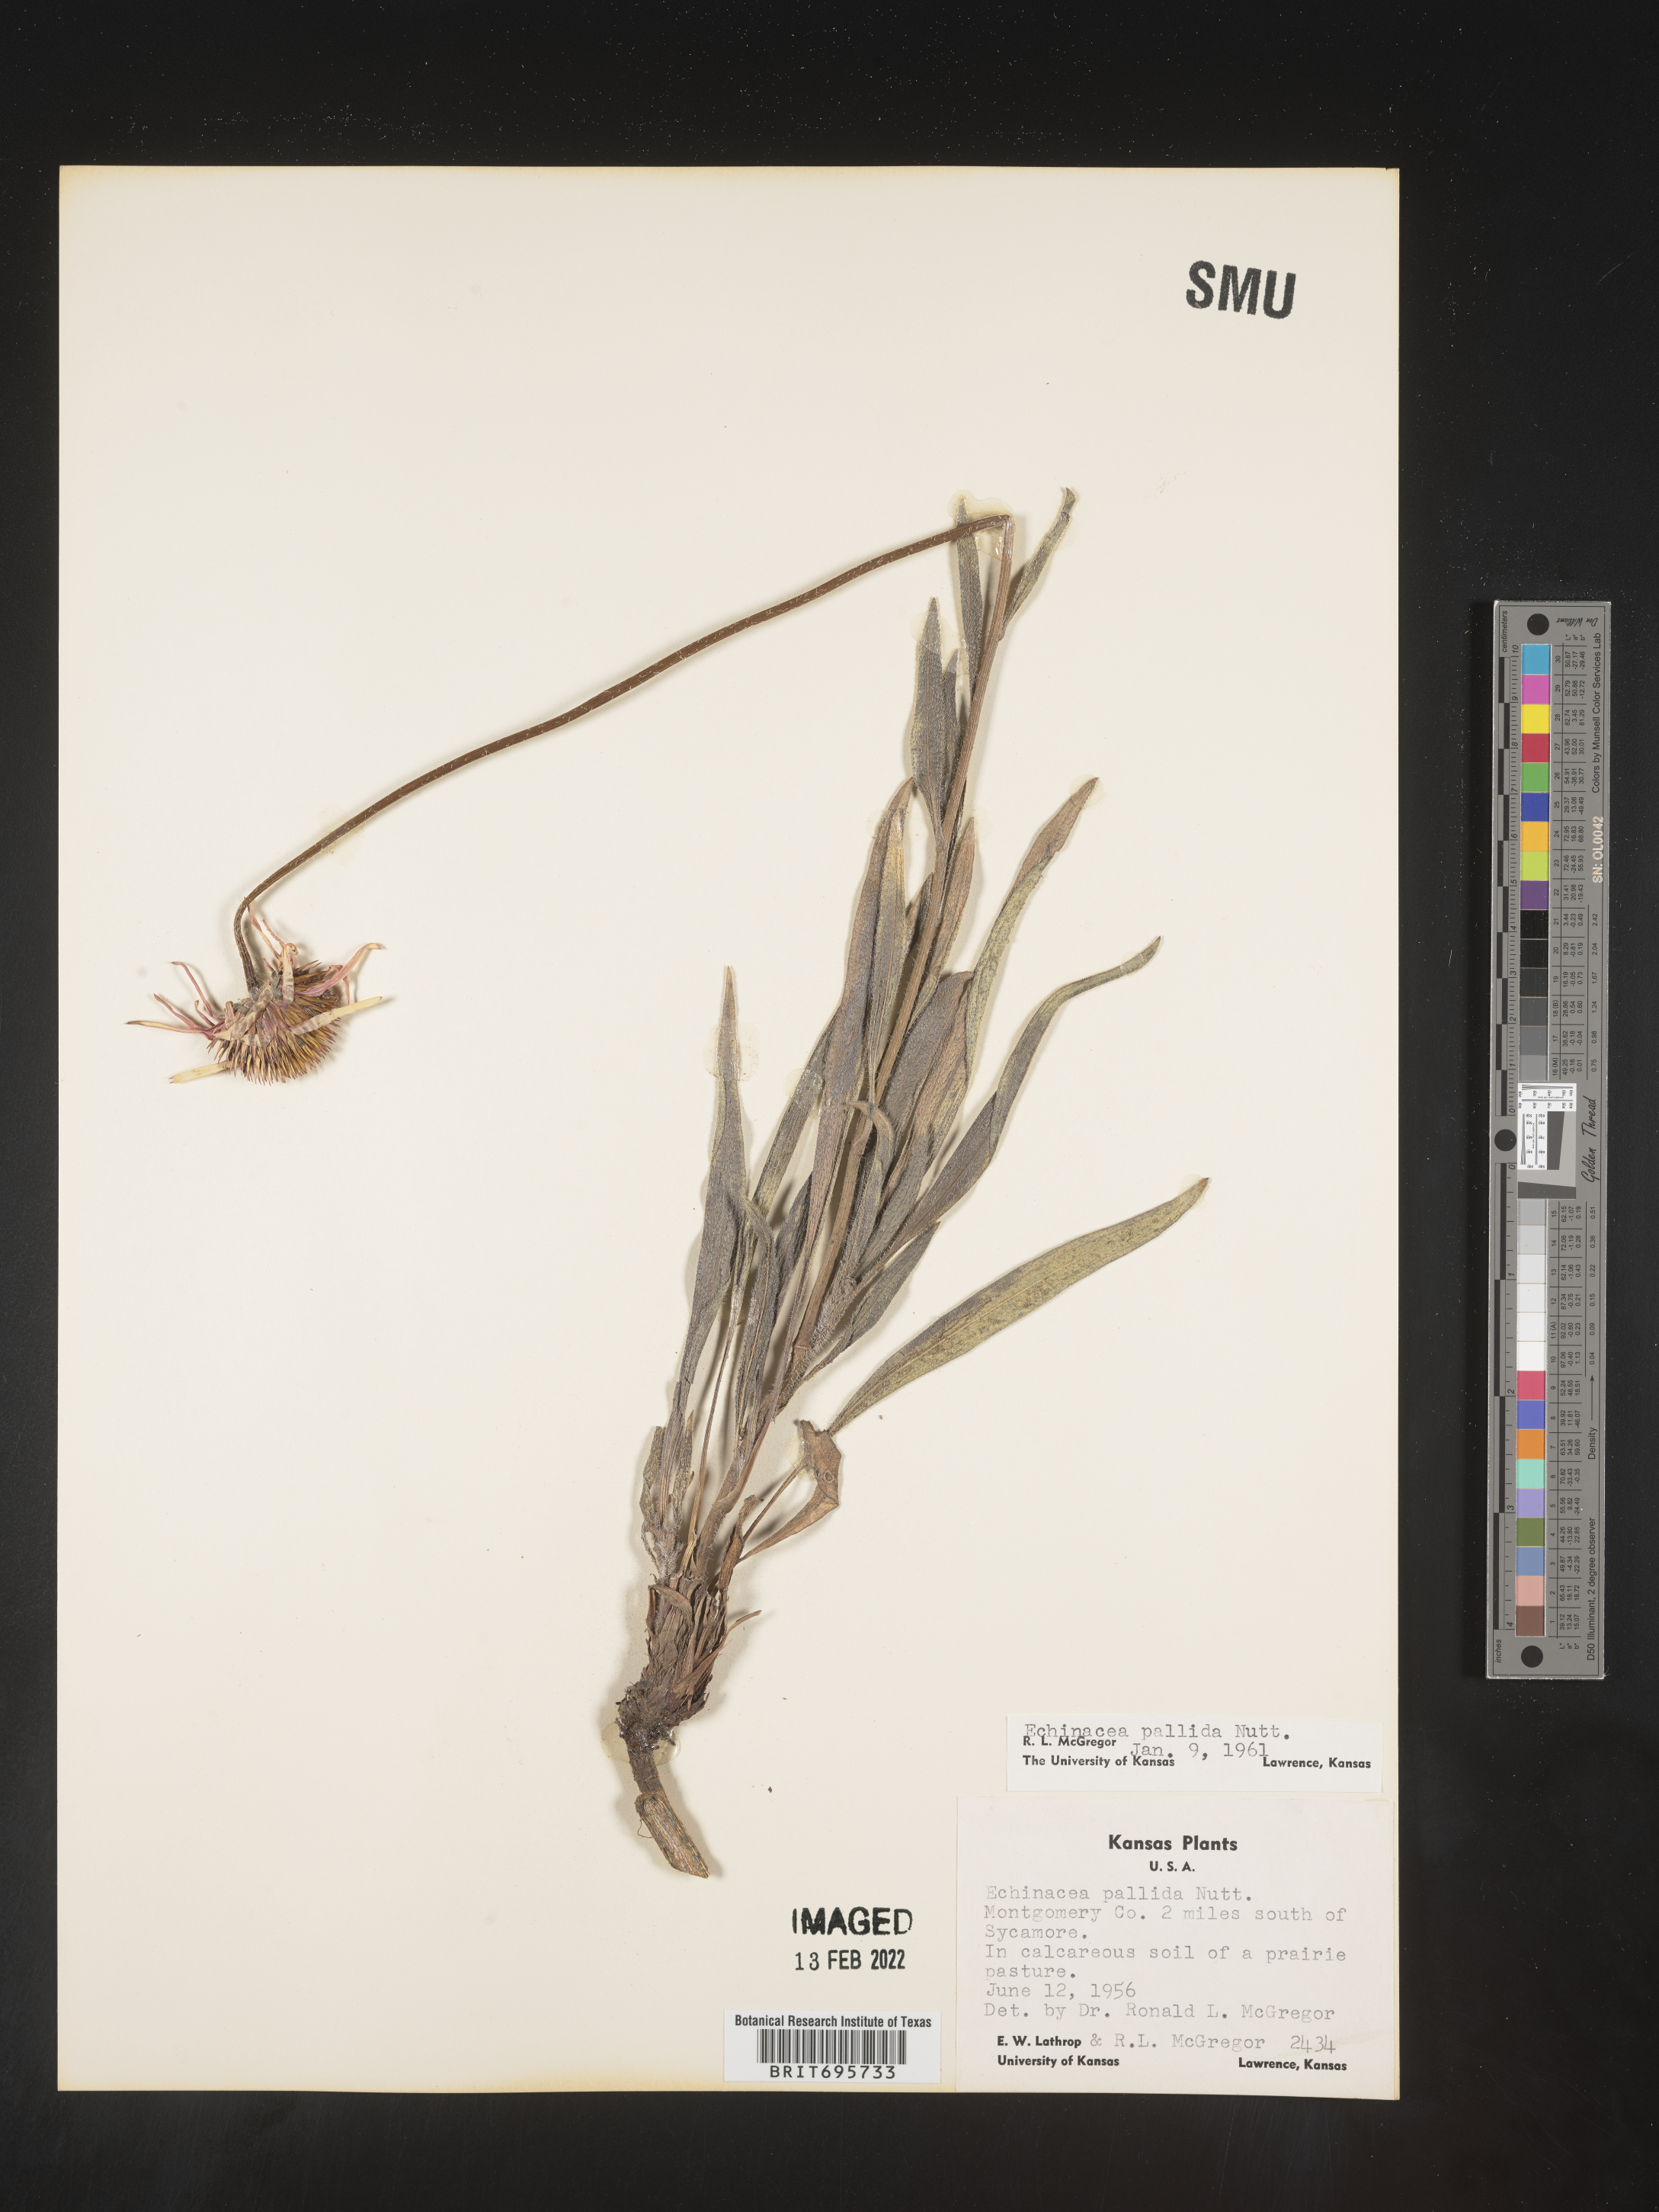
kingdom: Plantae
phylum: Tracheophyta
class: Magnoliopsida
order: Asterales
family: Asteraceae
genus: Echinacea
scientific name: Echinacea pallida
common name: Pale echinacea
